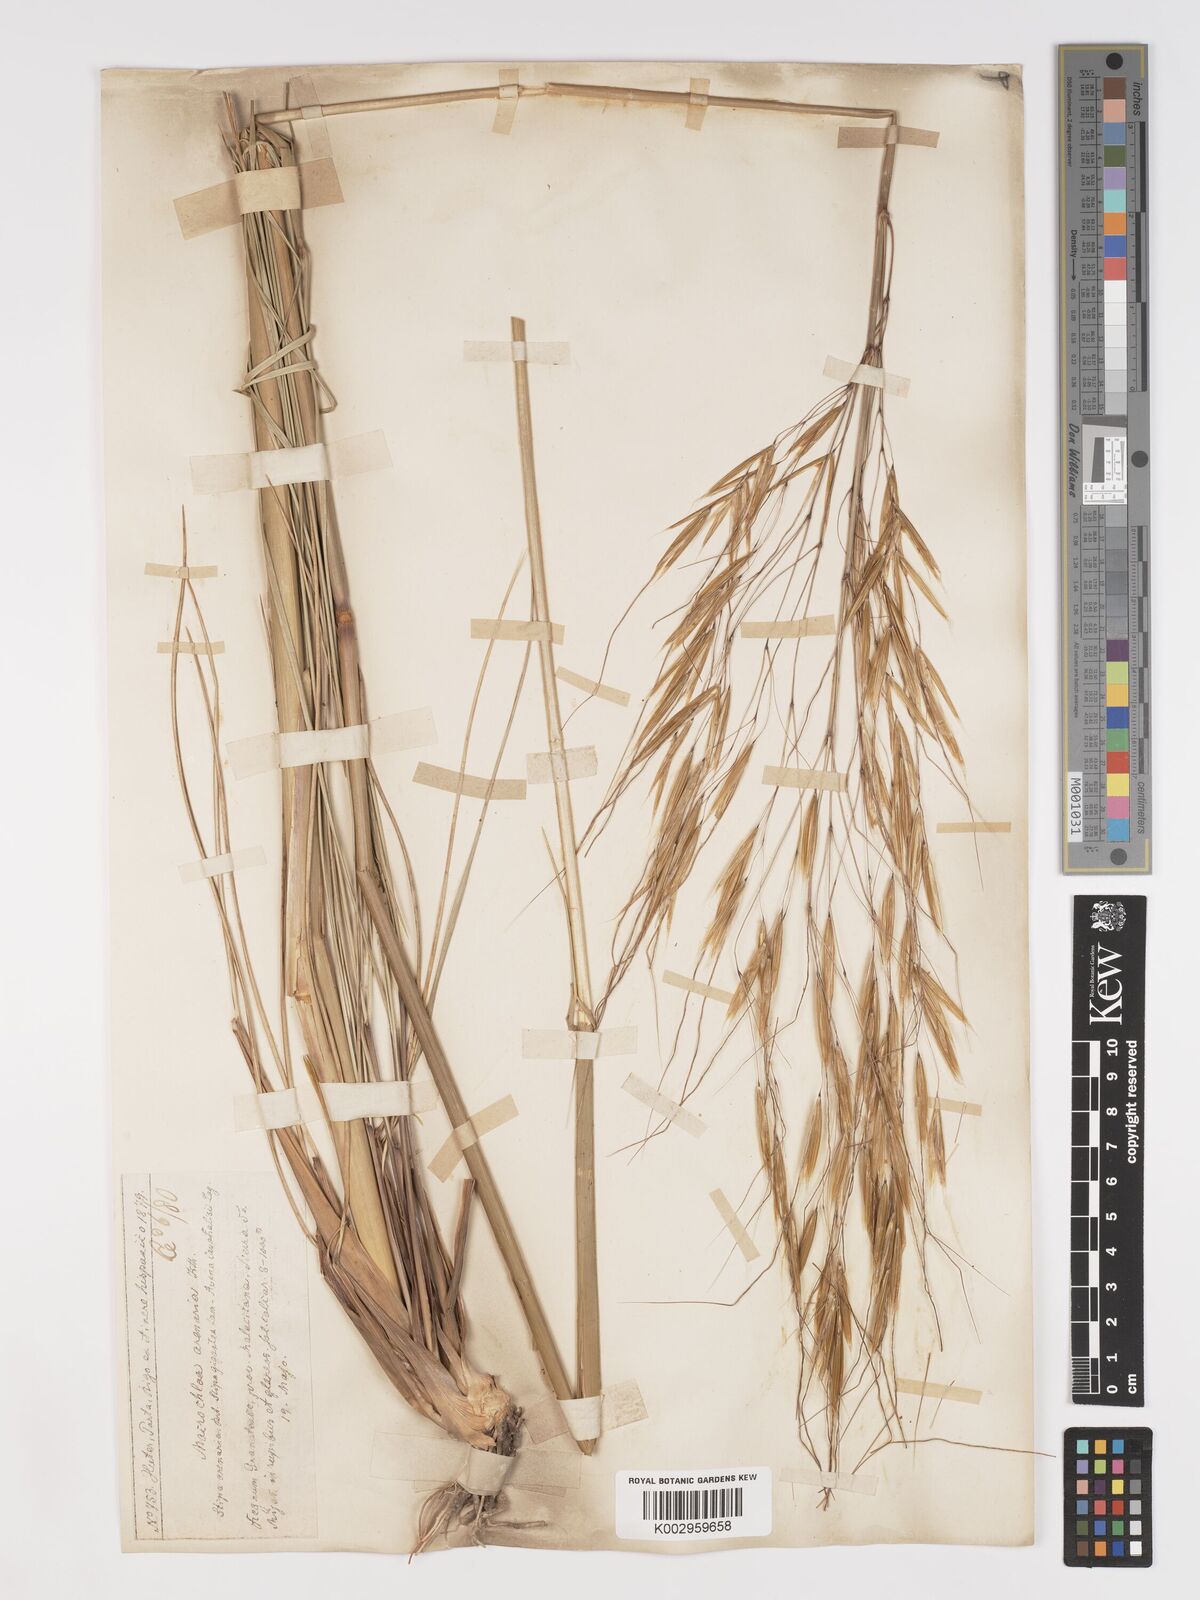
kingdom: Plantae
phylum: Tracheophyta
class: Liliopsida
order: Poales
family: Poaceae
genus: Celtica
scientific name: Celtica gigantea
